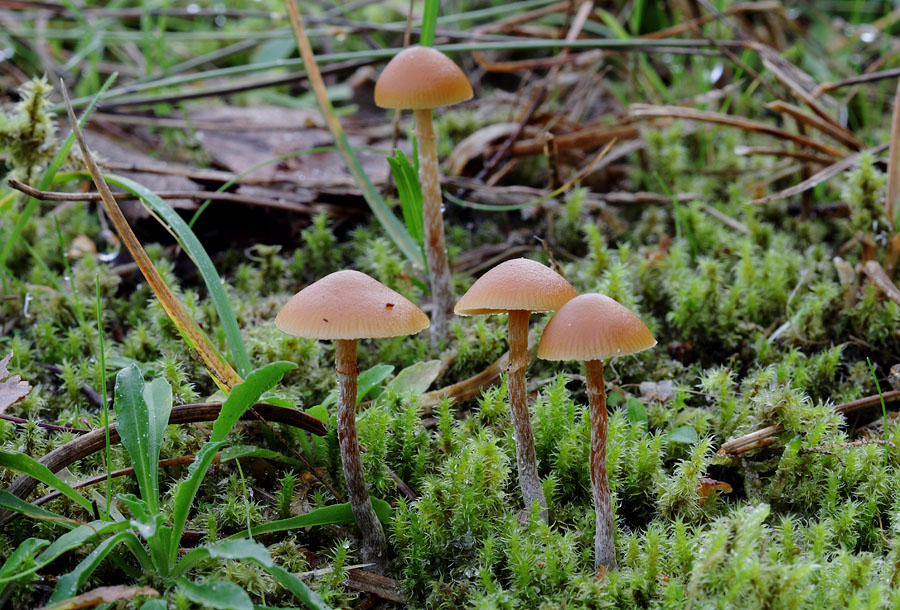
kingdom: Fungi
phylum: Basidiomycota
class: Agaricomycetes
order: Agaricales
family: Hymenogastraceae
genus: Galerina
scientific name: Galerina marginata
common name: randbæltet hjelmhat
